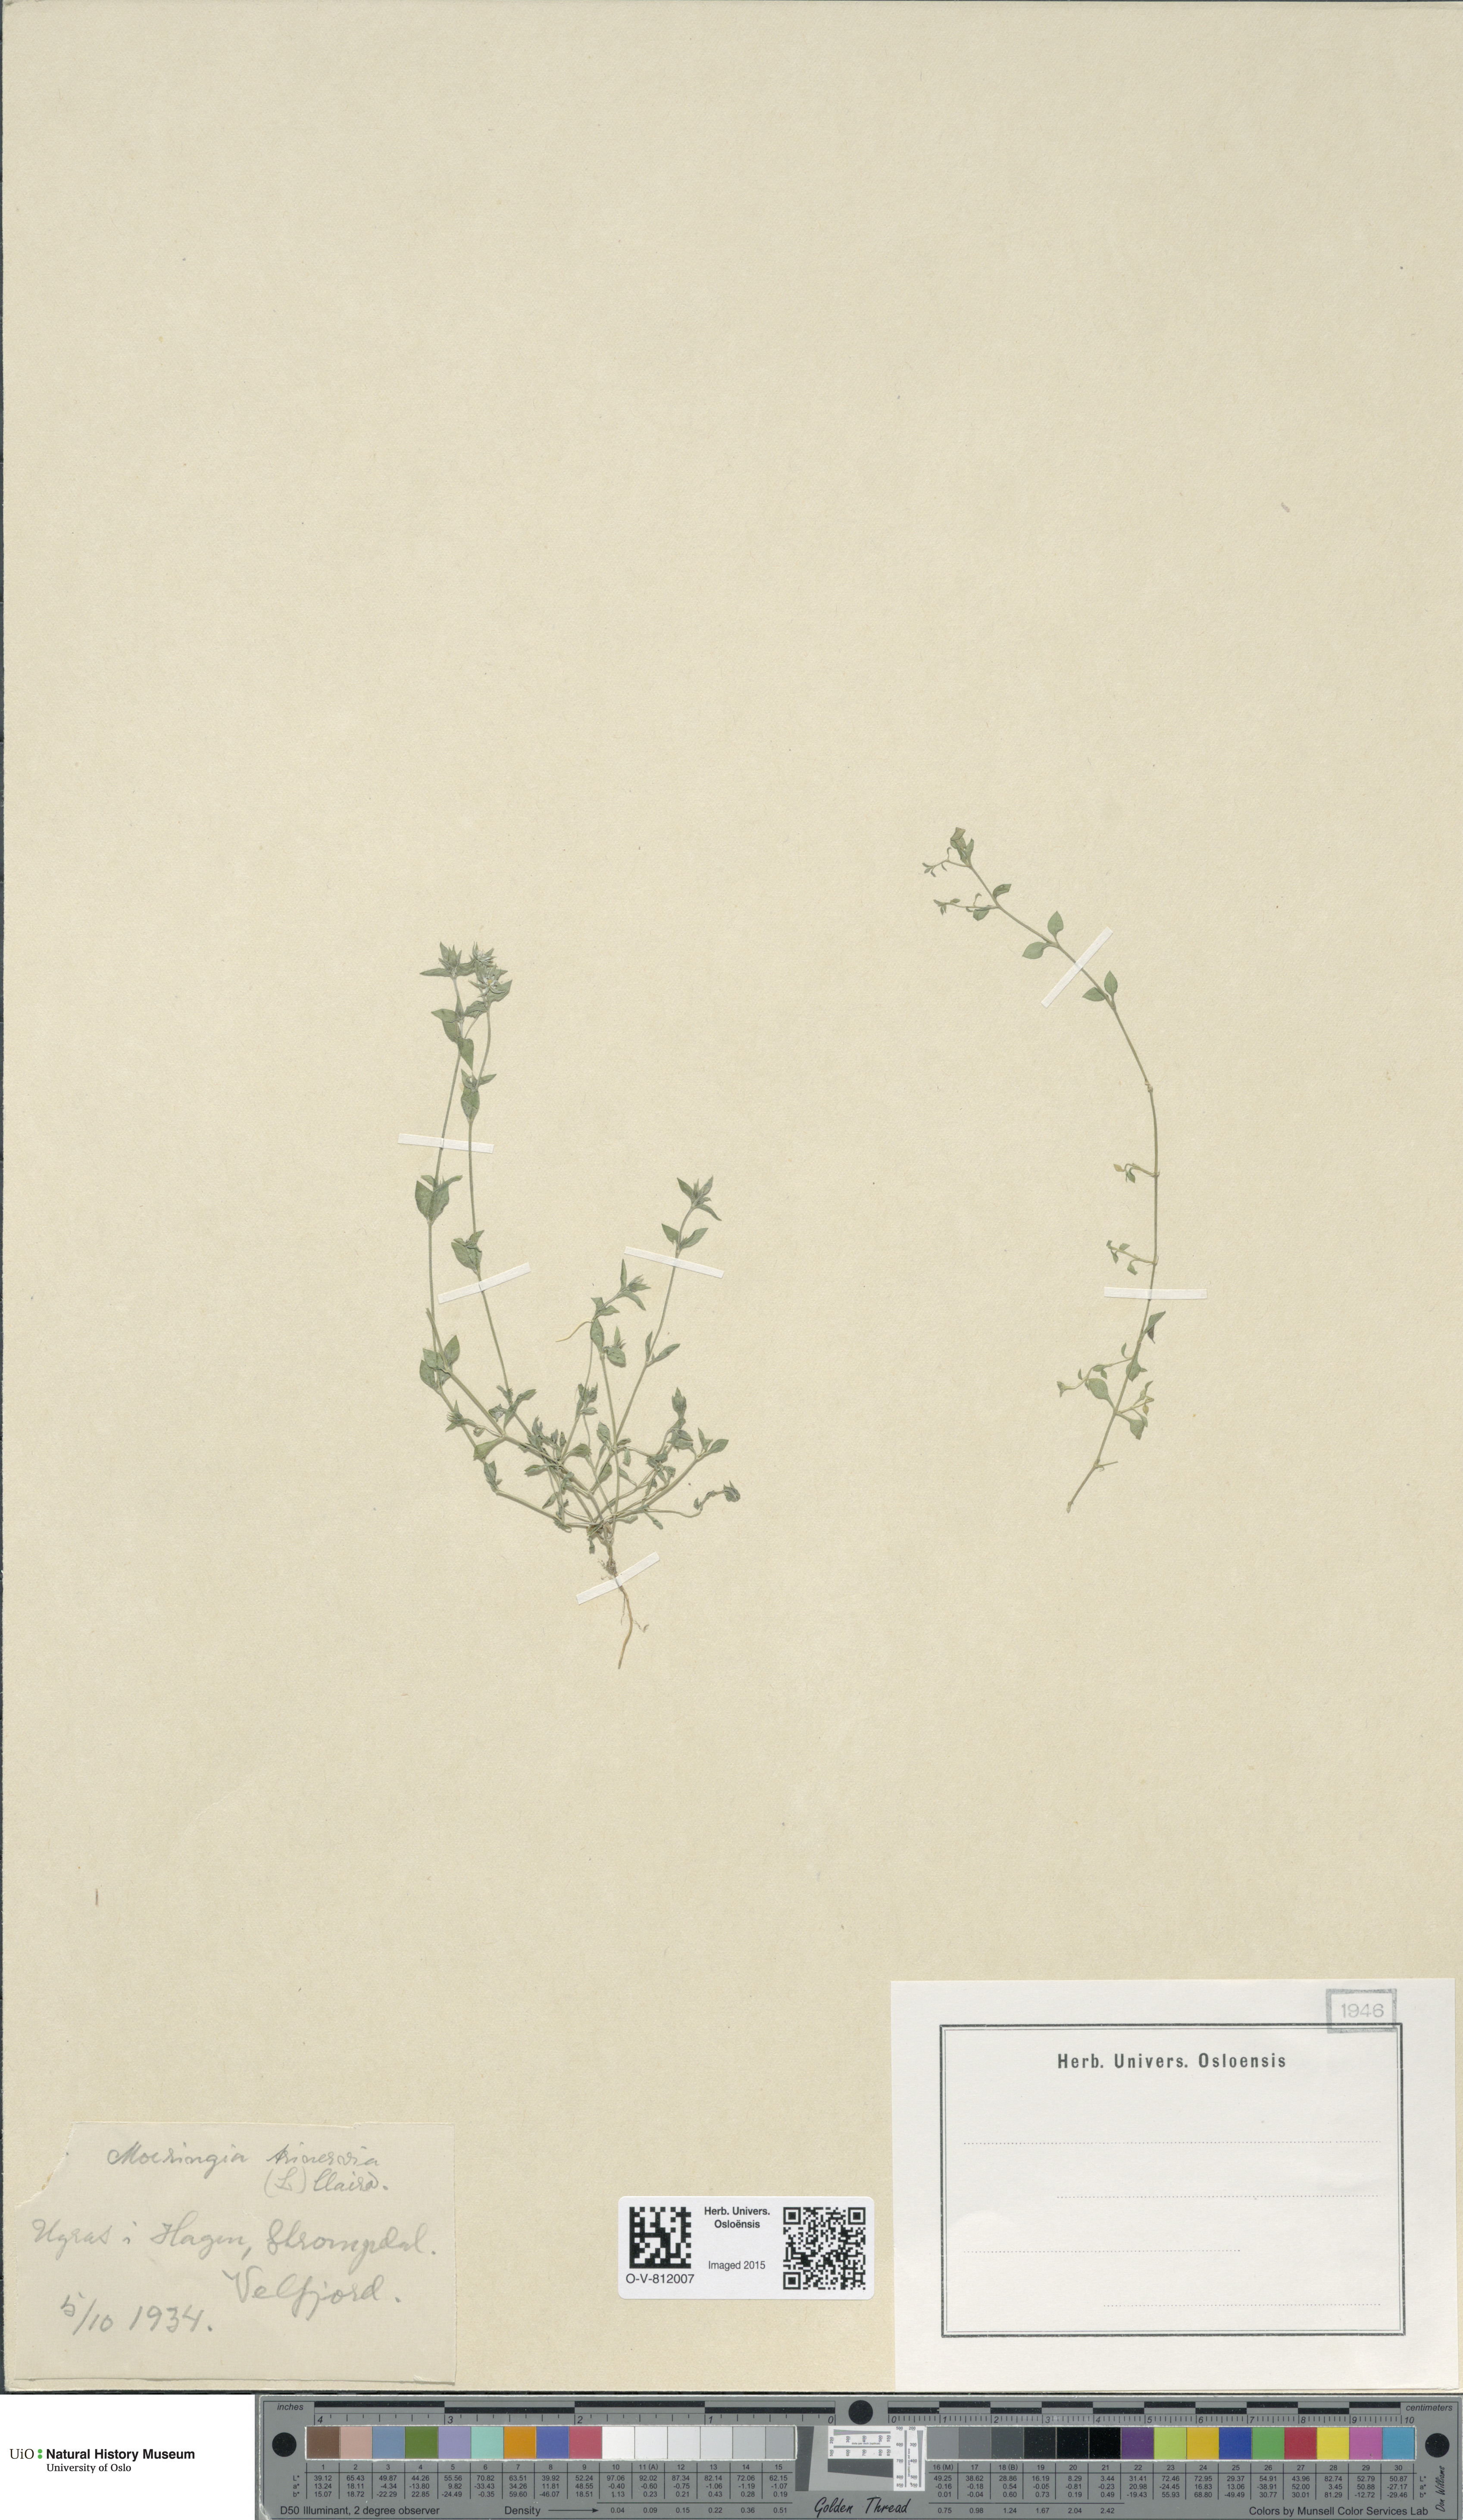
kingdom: Plantae
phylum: Tracheophyta
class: Magnoliopsida
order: Caryophyllales
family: Caryophyllaceae
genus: Moehringia
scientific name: Moehringia trinervia
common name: Three-nerved sandwort
